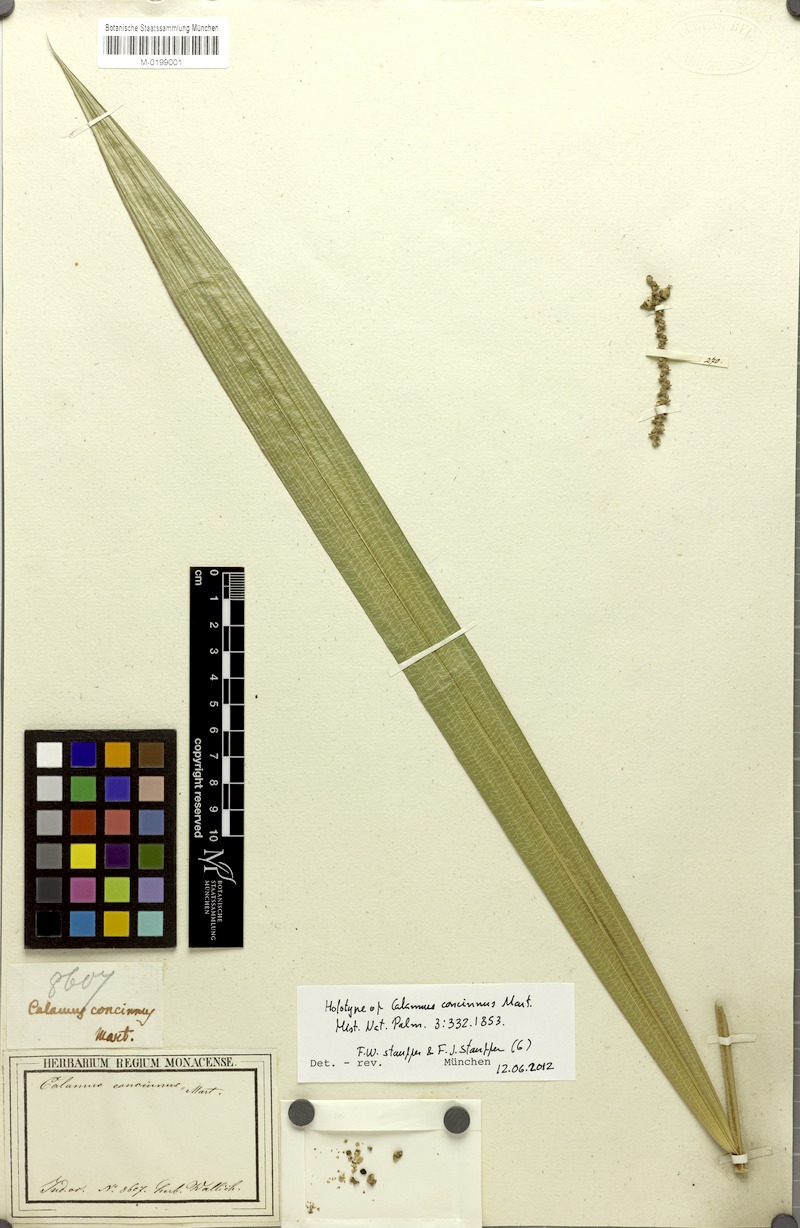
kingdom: Plantae
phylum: Tracheophyta
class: Liliopsida
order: Arecales
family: Arecaceae
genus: Calamus
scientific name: Calamus concinnus
